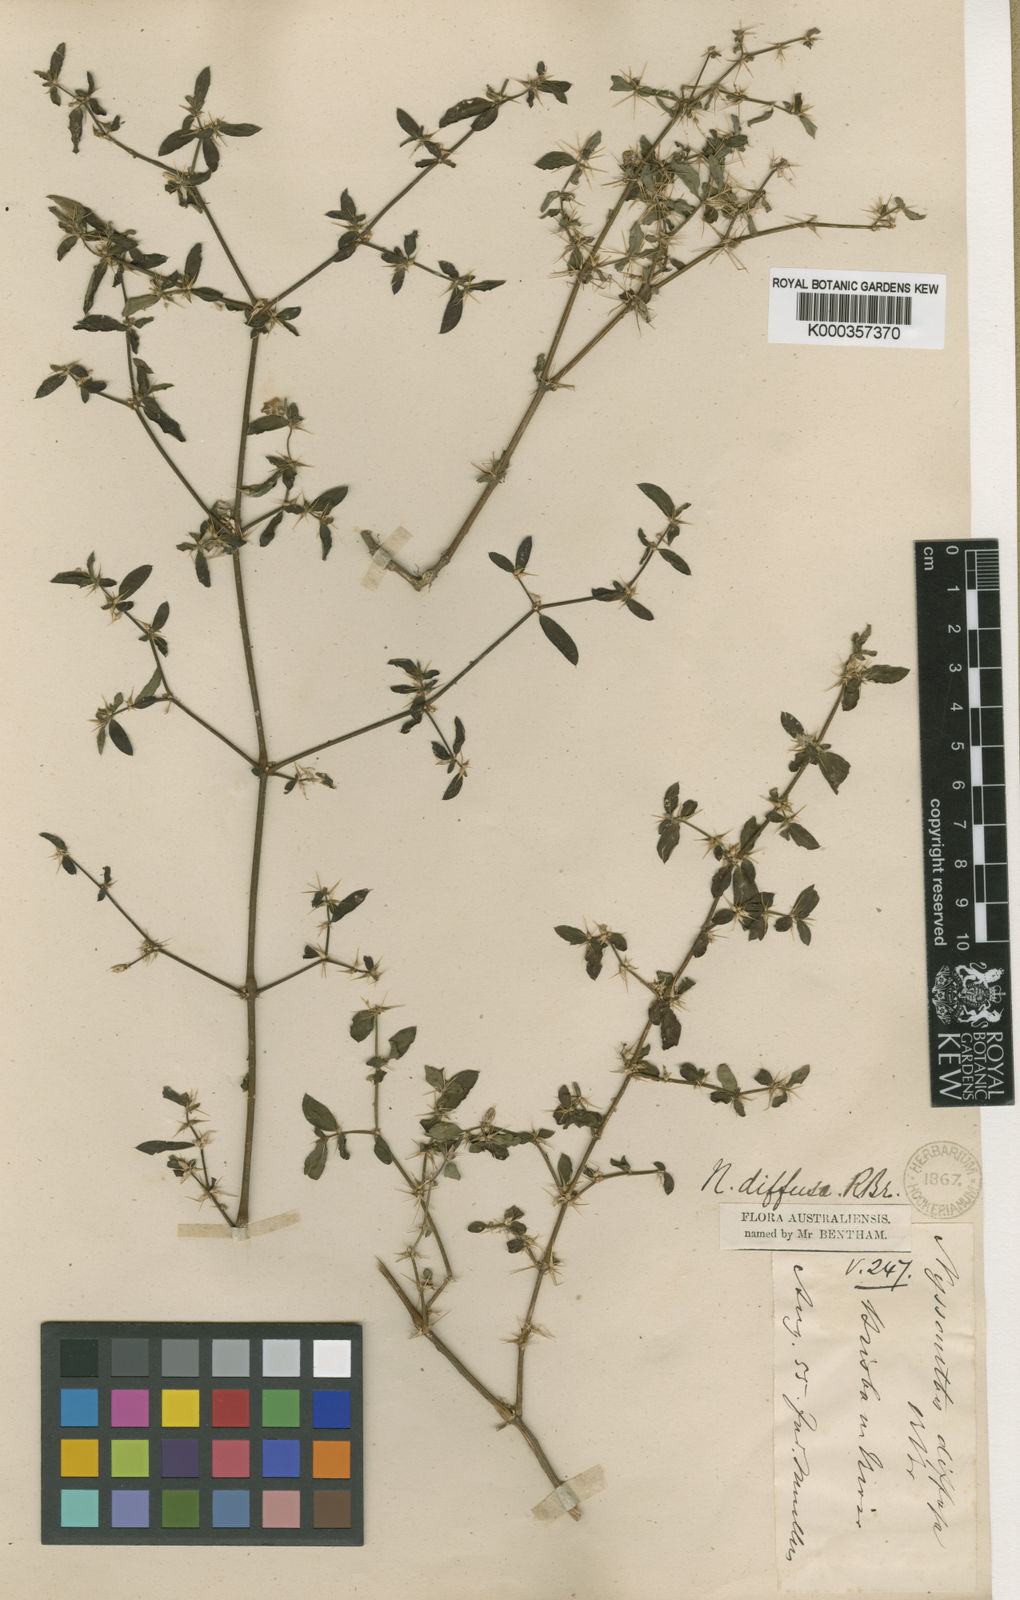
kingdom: Plantae
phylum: Tracheophyta
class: Magnoliopsida
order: Caryophyllales
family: Amaranthaceae
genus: Nyssanthes
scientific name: Nyssanthes diffusa
